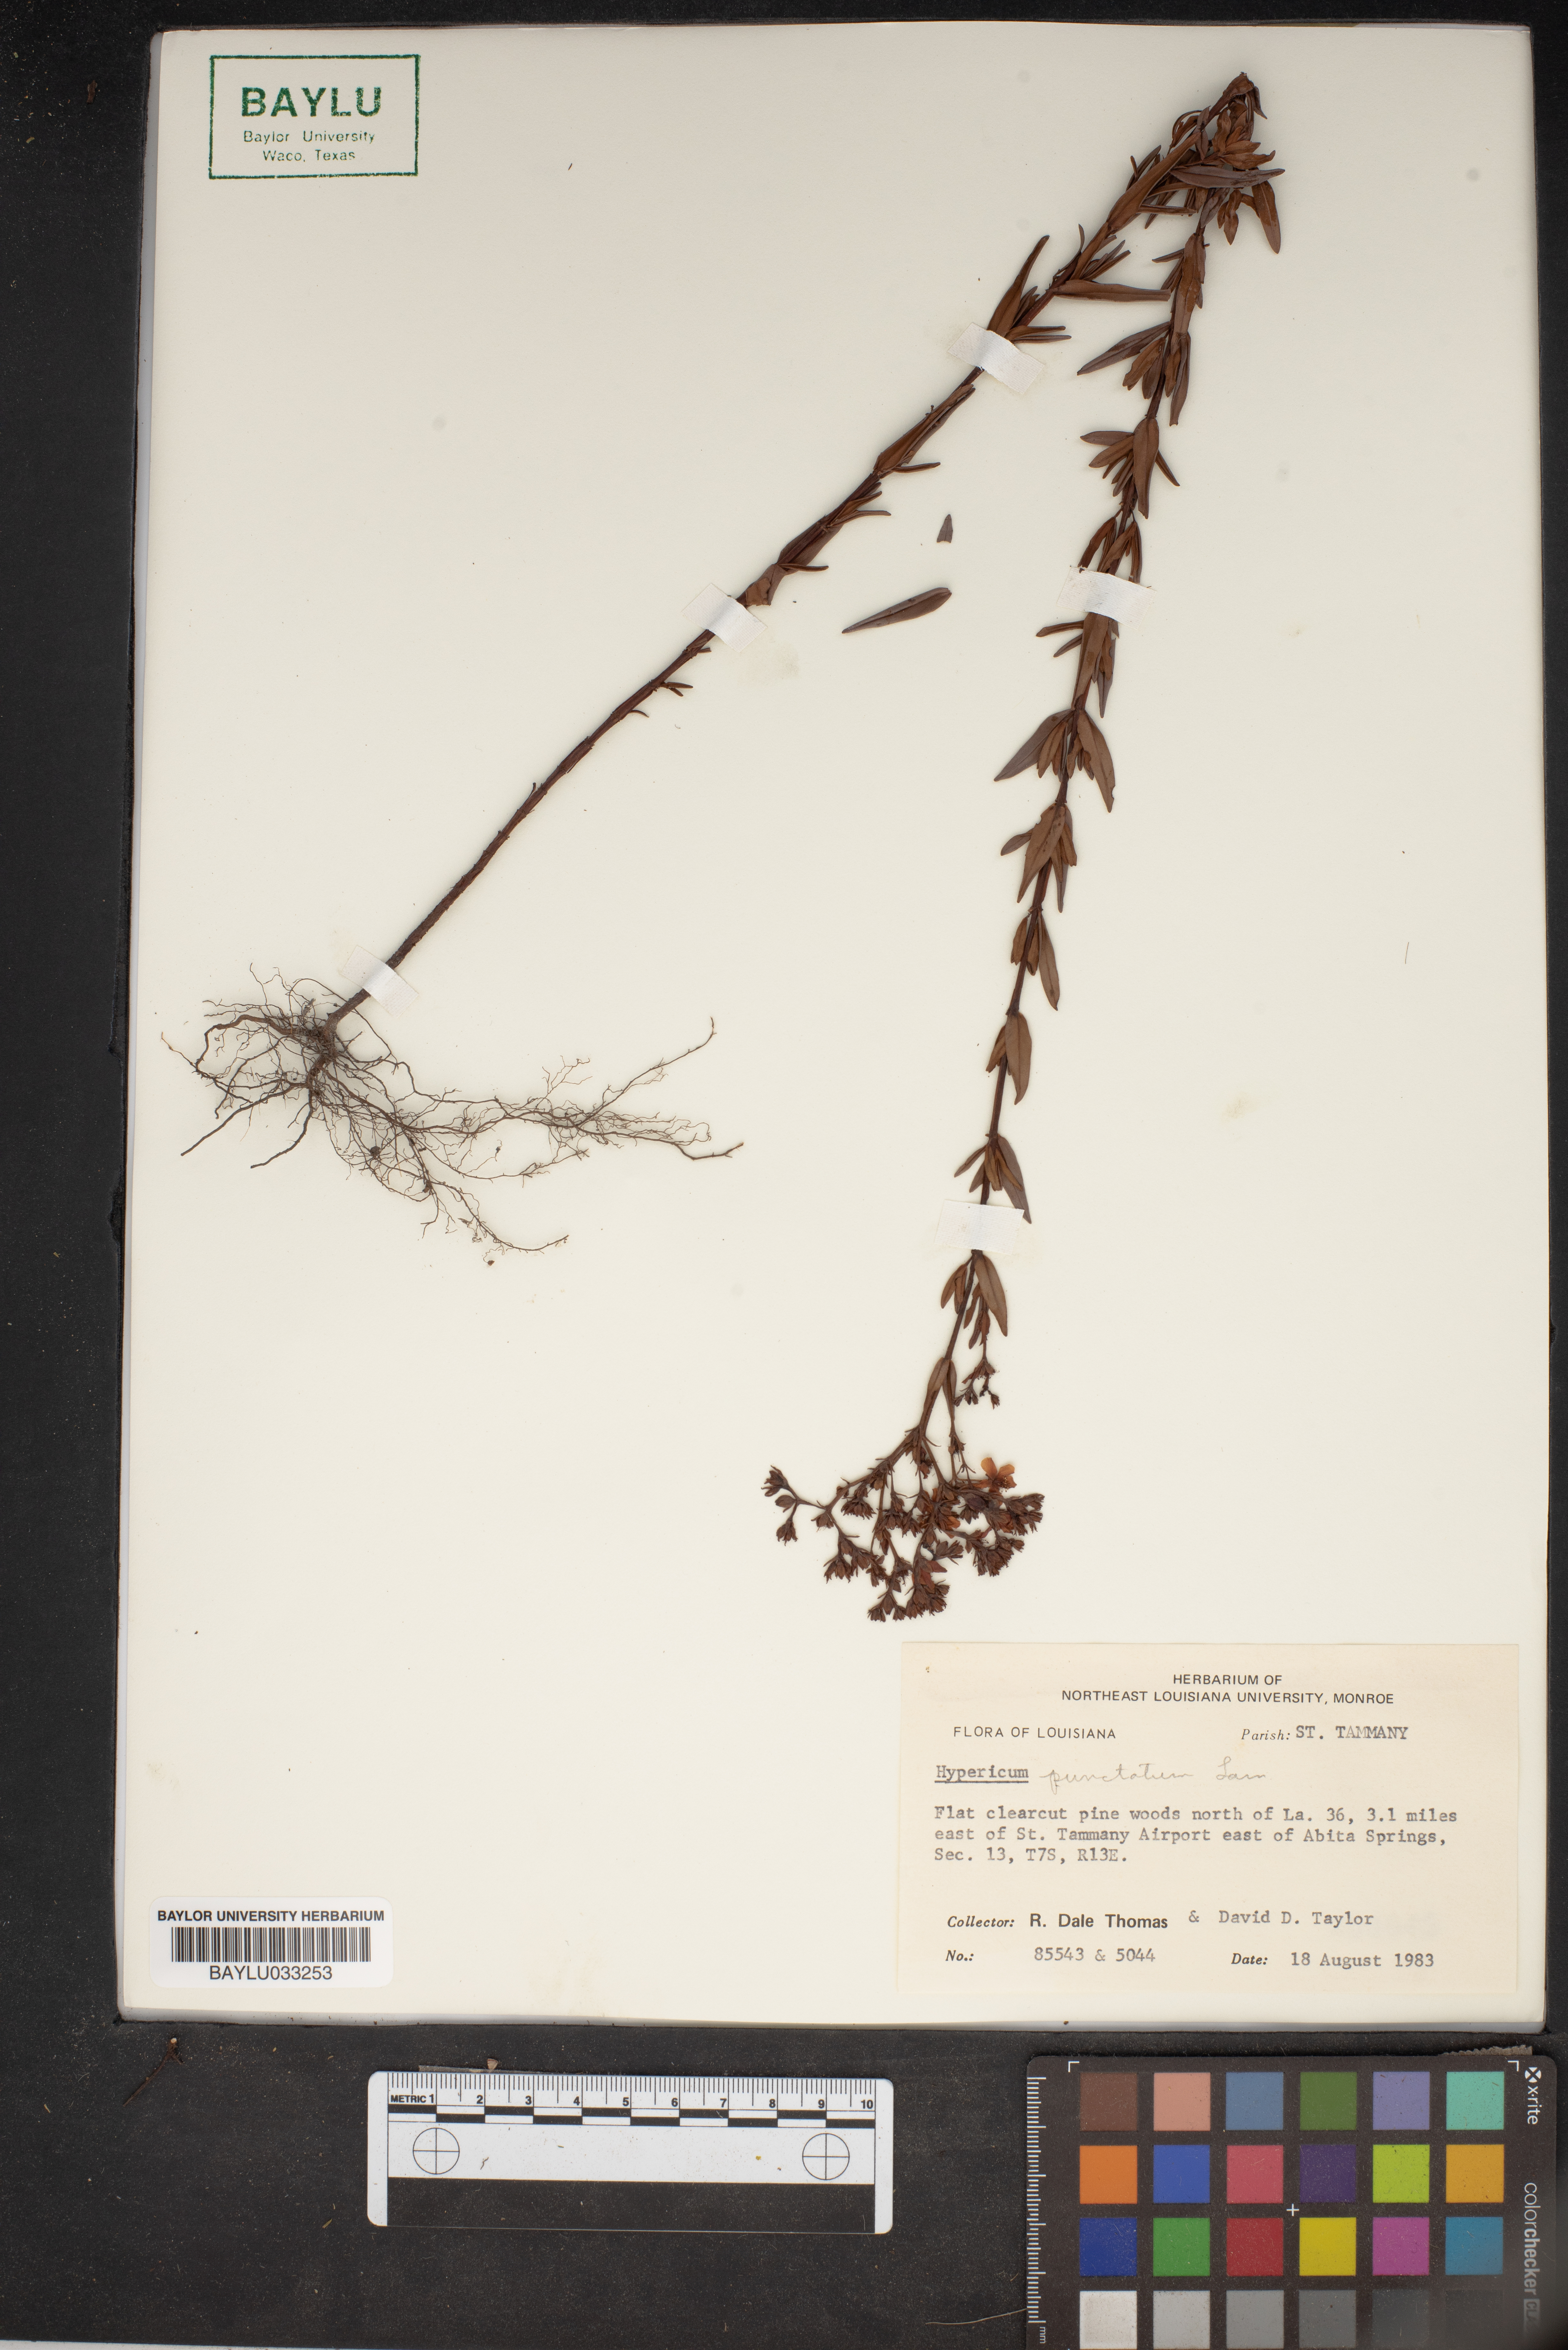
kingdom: Plantae
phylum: Tracheophyta
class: Magnoliopsida
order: Malpighiales
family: Hypericaceae
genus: Hypericum
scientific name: Hypericum punctatum
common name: Spotted st. john's-wort
